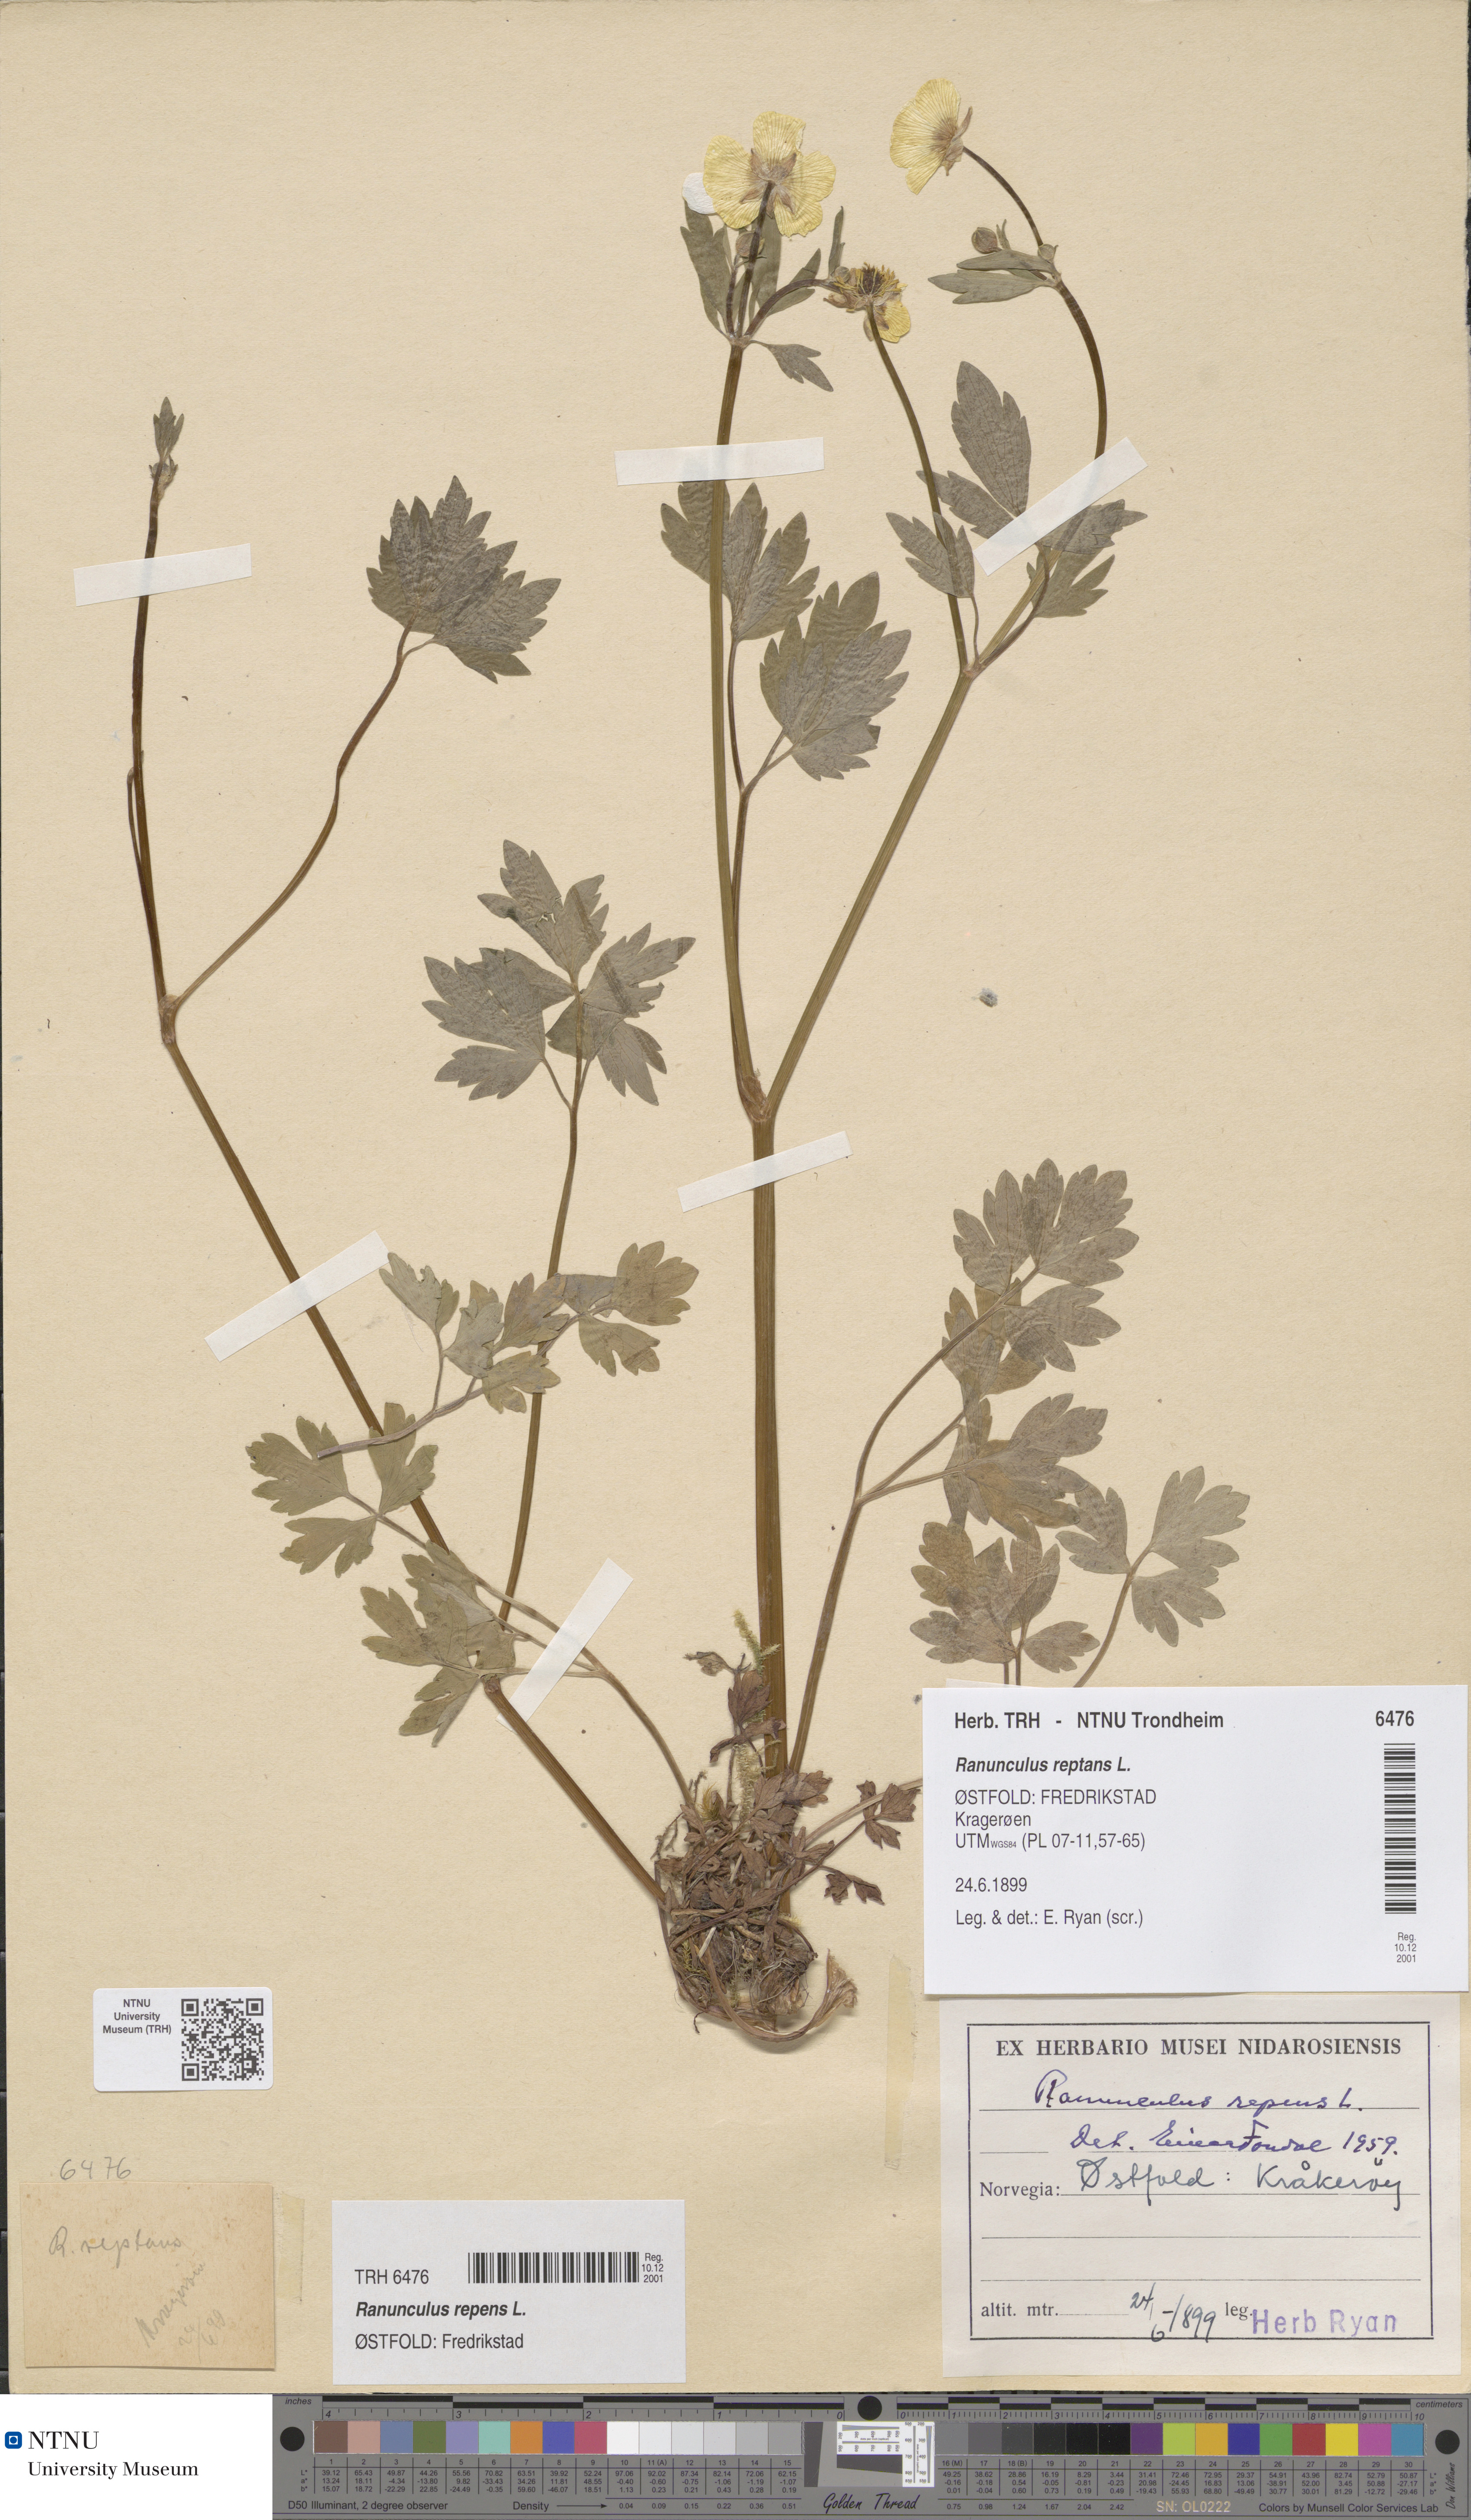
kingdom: Plantae
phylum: Tracheophyta
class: Magnoliopsida
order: Ranunculales
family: Ranunculaceae
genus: Ranunculus
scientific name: Ranunculus repens
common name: Creeping buttercup
